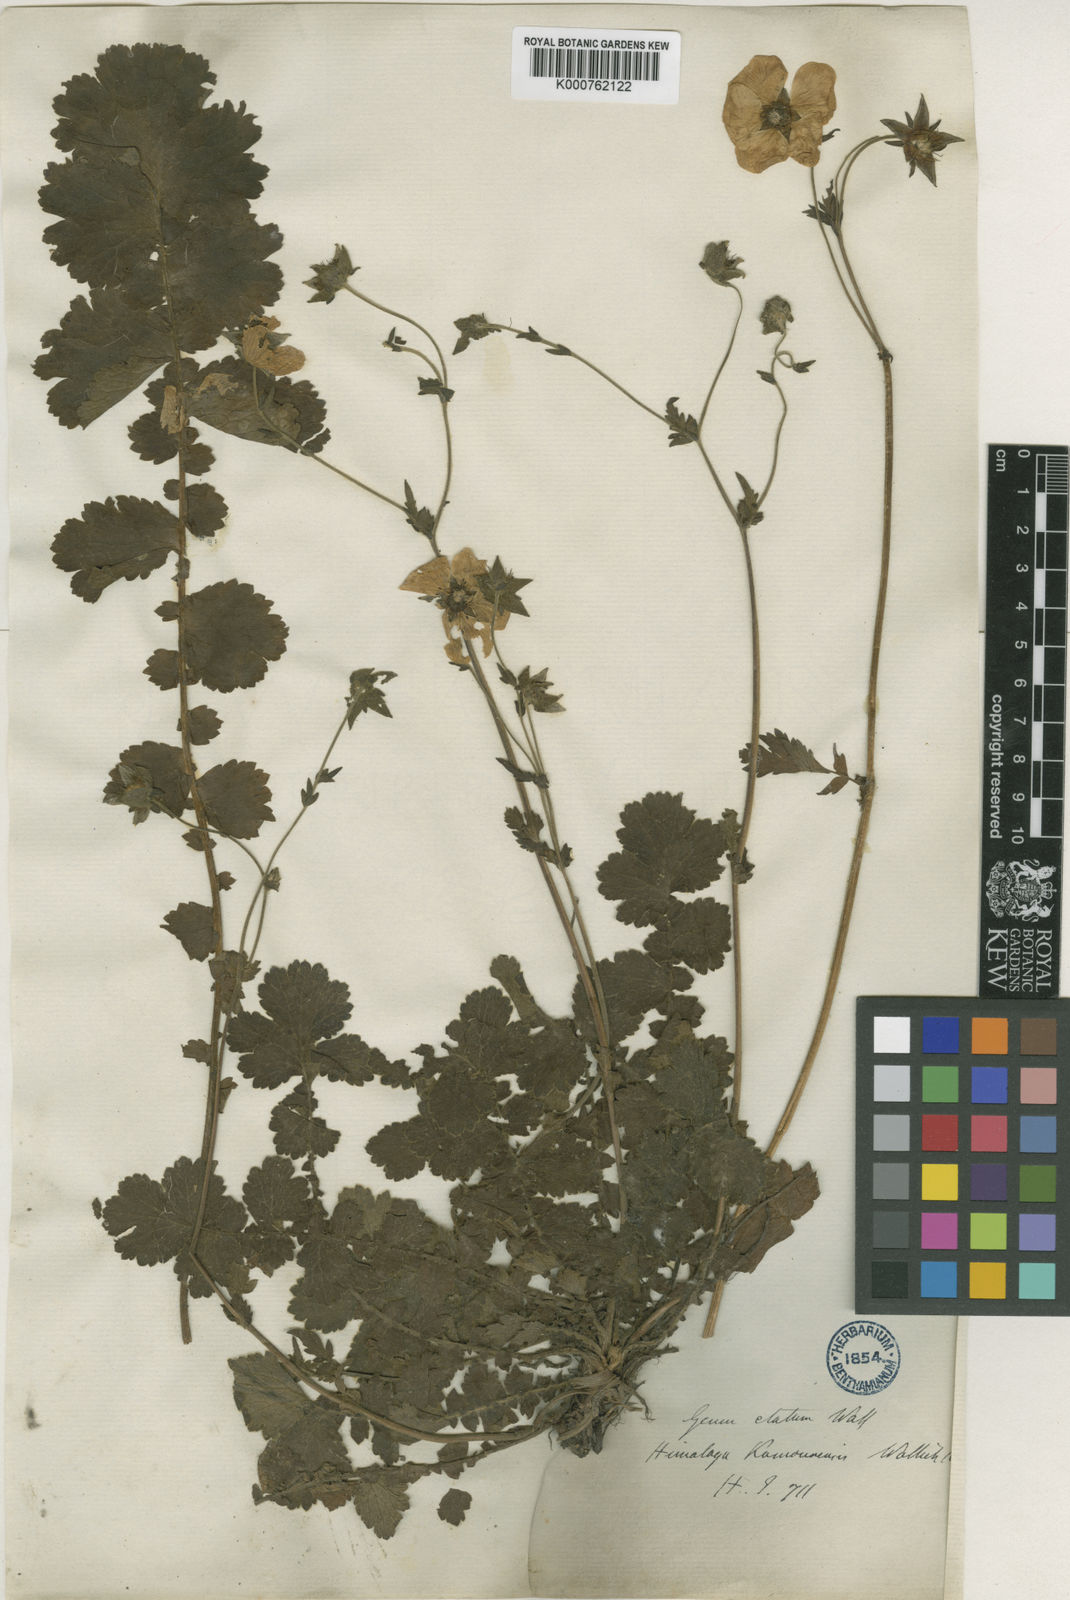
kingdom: Plantae
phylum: Tracheophyta
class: Magnoliopsida
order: Rosales
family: Rosaceae
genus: Geum
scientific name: Geum
